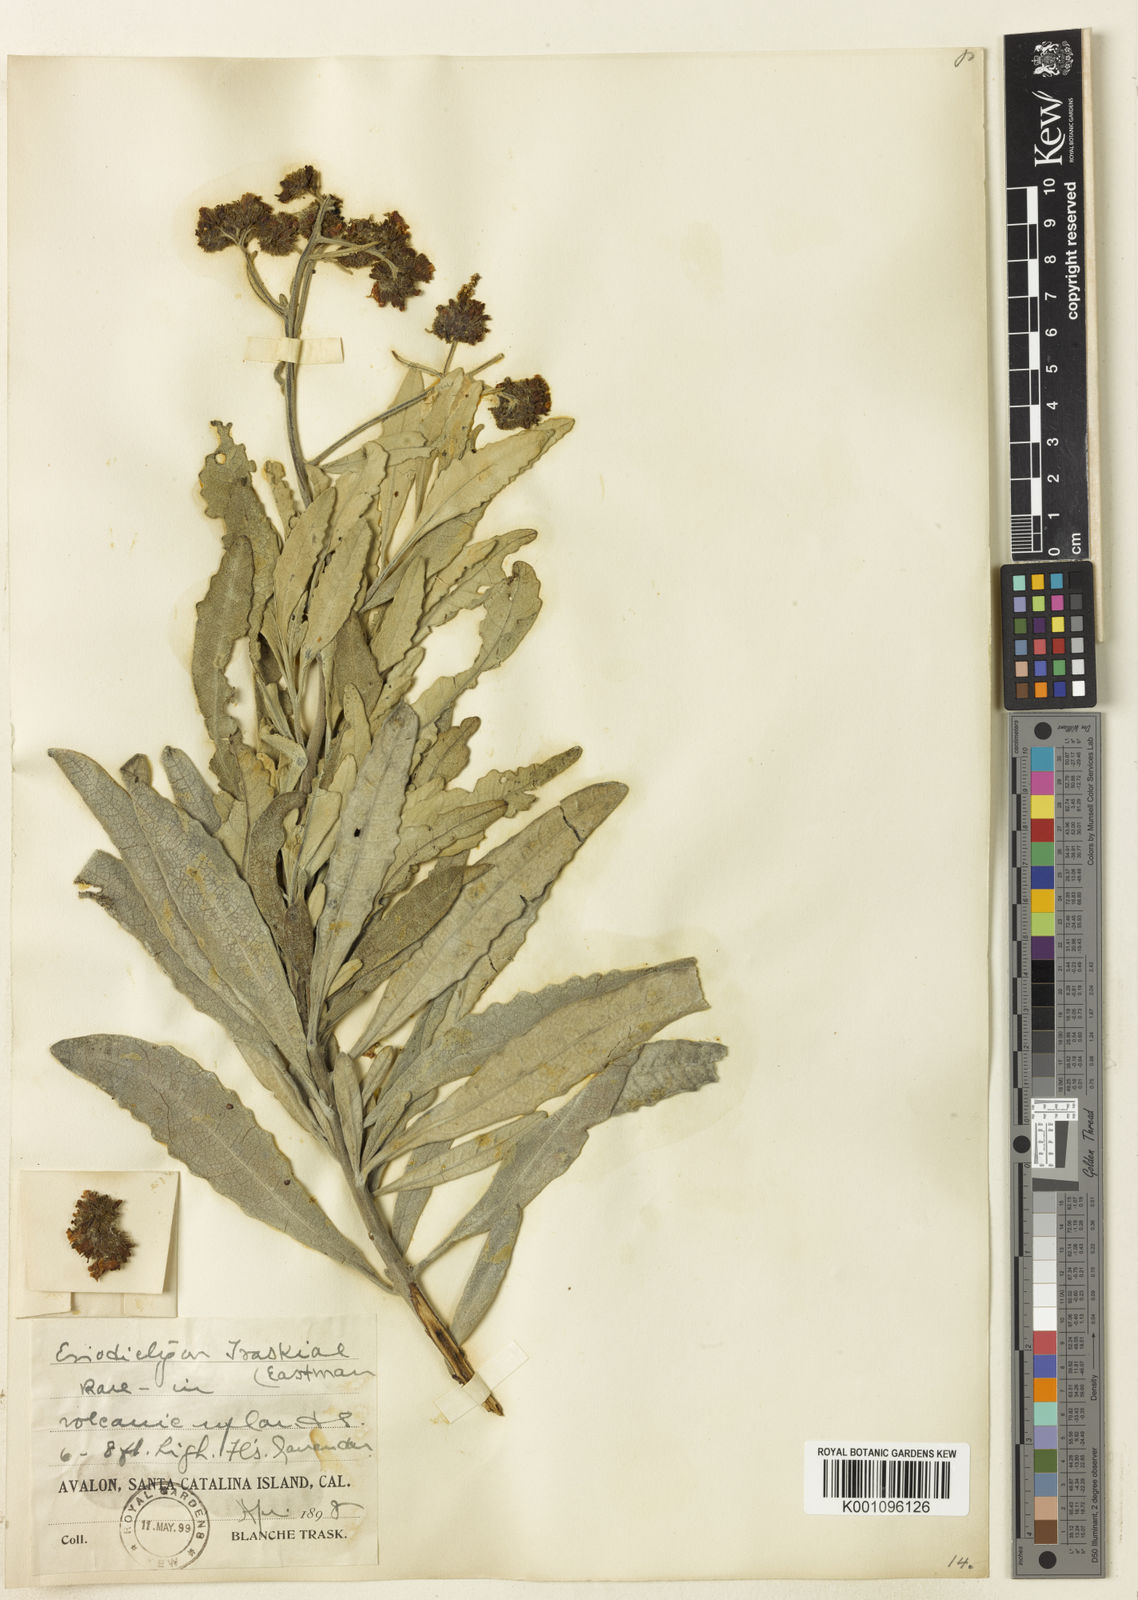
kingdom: Plantae
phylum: Tracheophyta
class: Magnoliopsida
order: Boraginales
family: Namaceae
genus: Eriodictyon
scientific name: Eriodictyon traskiae
